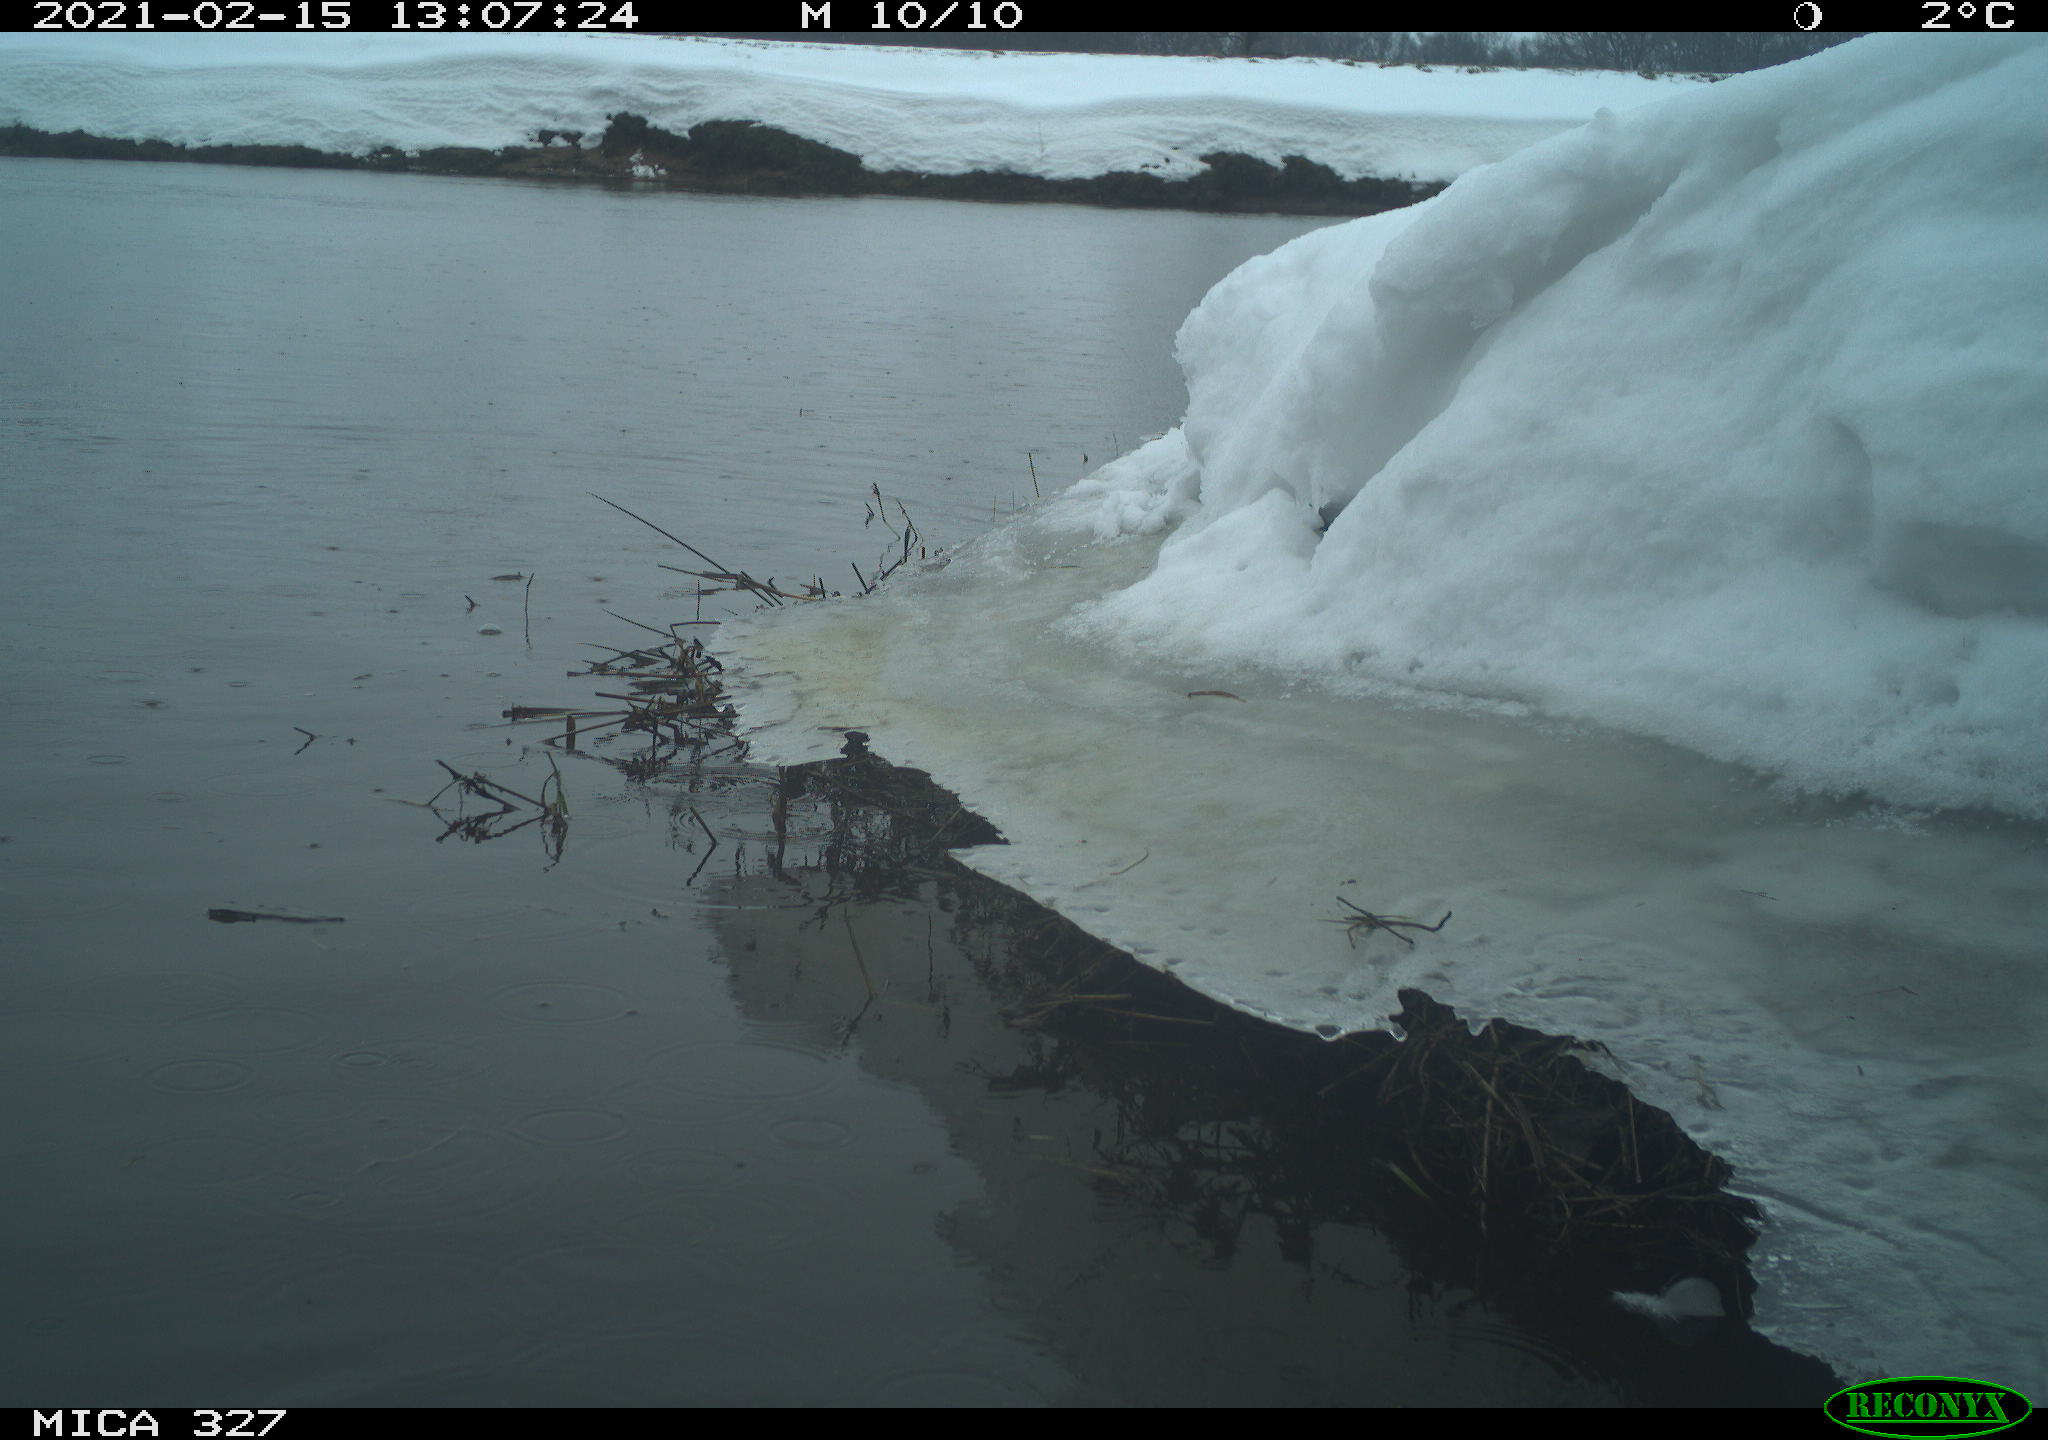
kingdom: Animalia
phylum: Chordata
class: Aves
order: Suliformes
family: Phalacrocoracidae
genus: Phalacrocorax
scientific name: Phalacrocorax carbo
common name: Great cormorant
